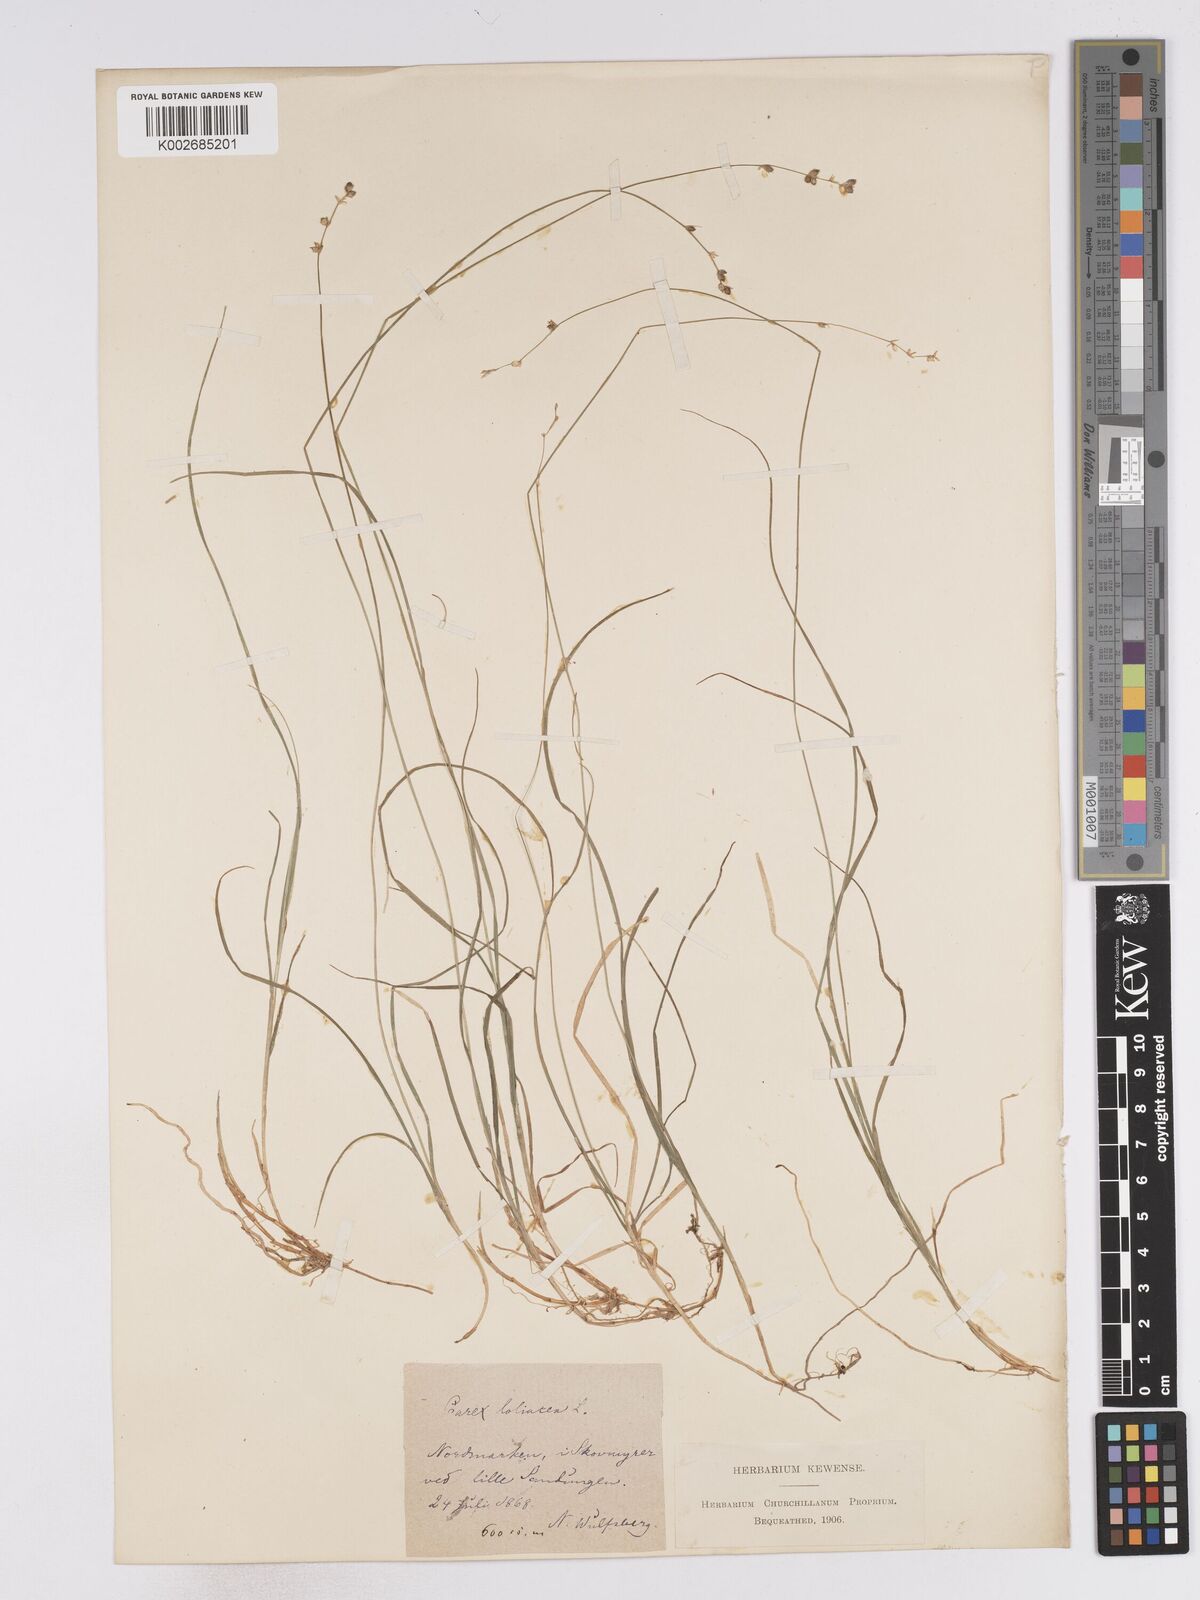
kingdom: Plantae
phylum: Tracheophyta
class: Liliopsida
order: Poales
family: Cyperaceae
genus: Carex
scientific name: Carex loliacea
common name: Ryegrass sedge
